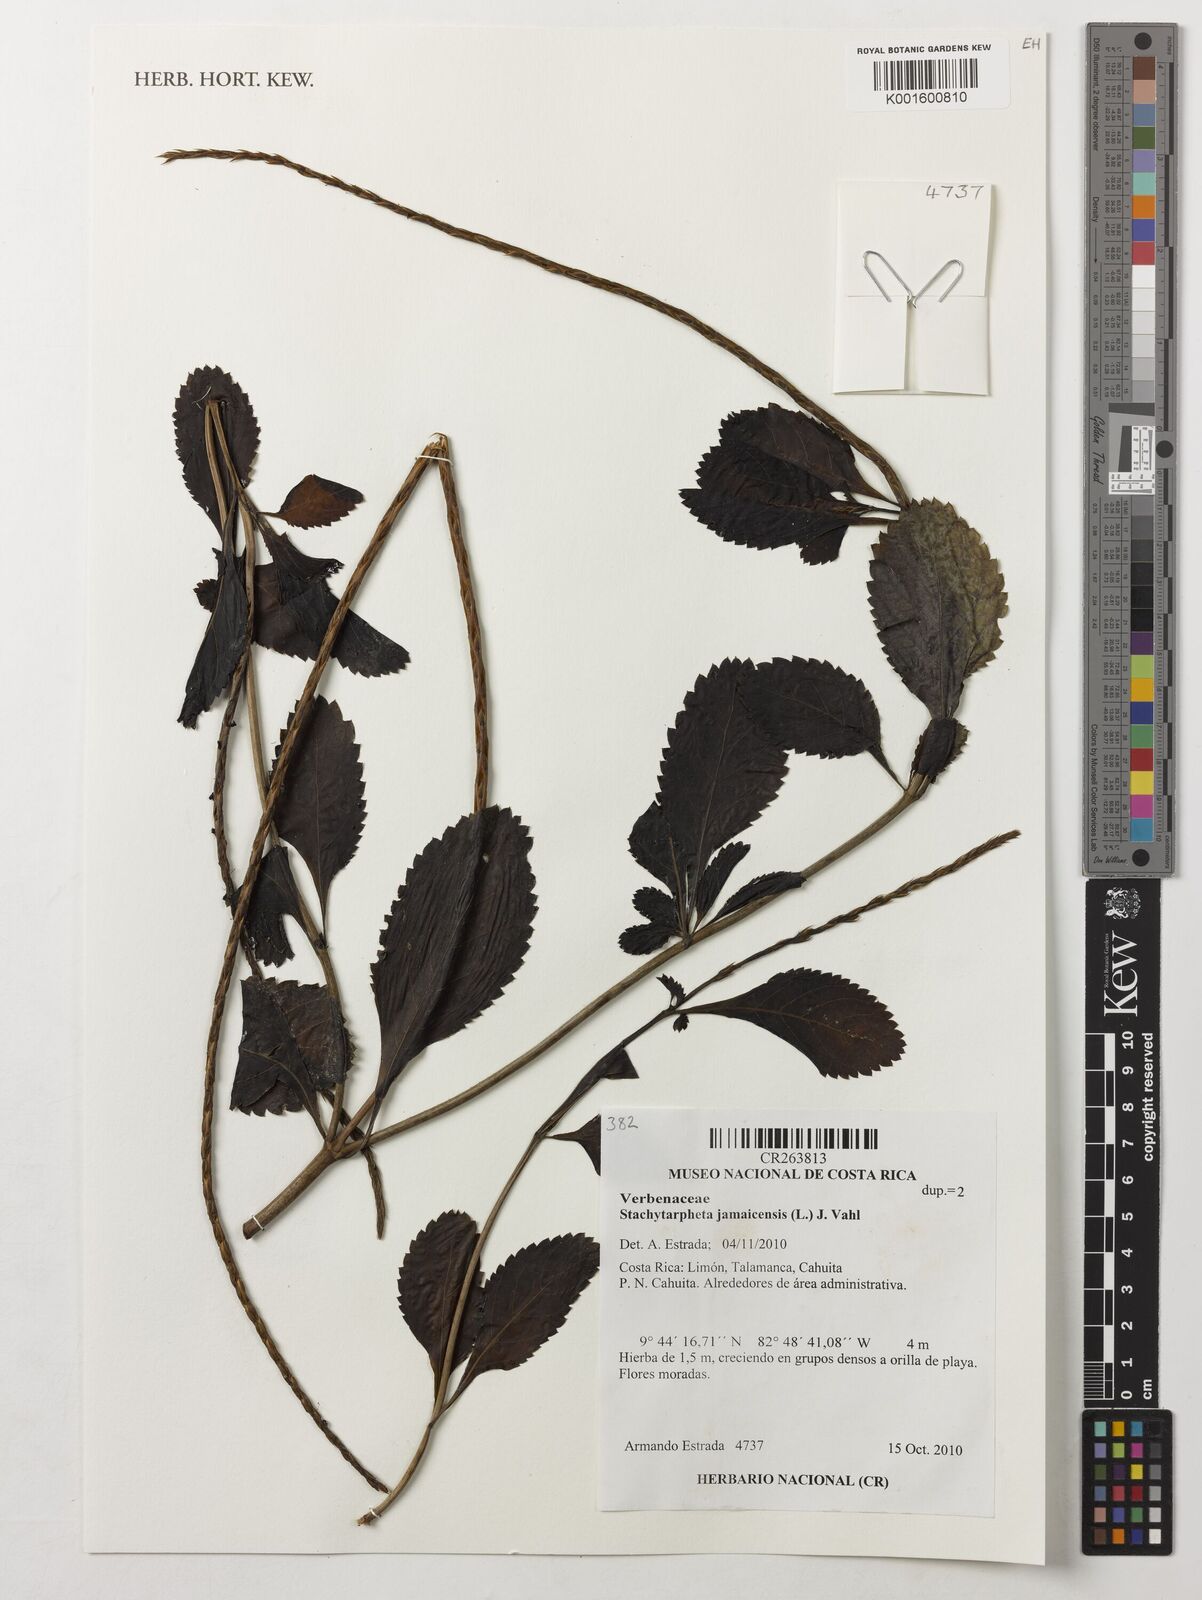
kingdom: Plantae
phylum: Tracheophyta
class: Magnoliopsida
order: Lamiales
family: Verbenaceae
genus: Stachytarpheta
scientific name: Stachytarpheta jamaicensis
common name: Light-blue snakeweed
